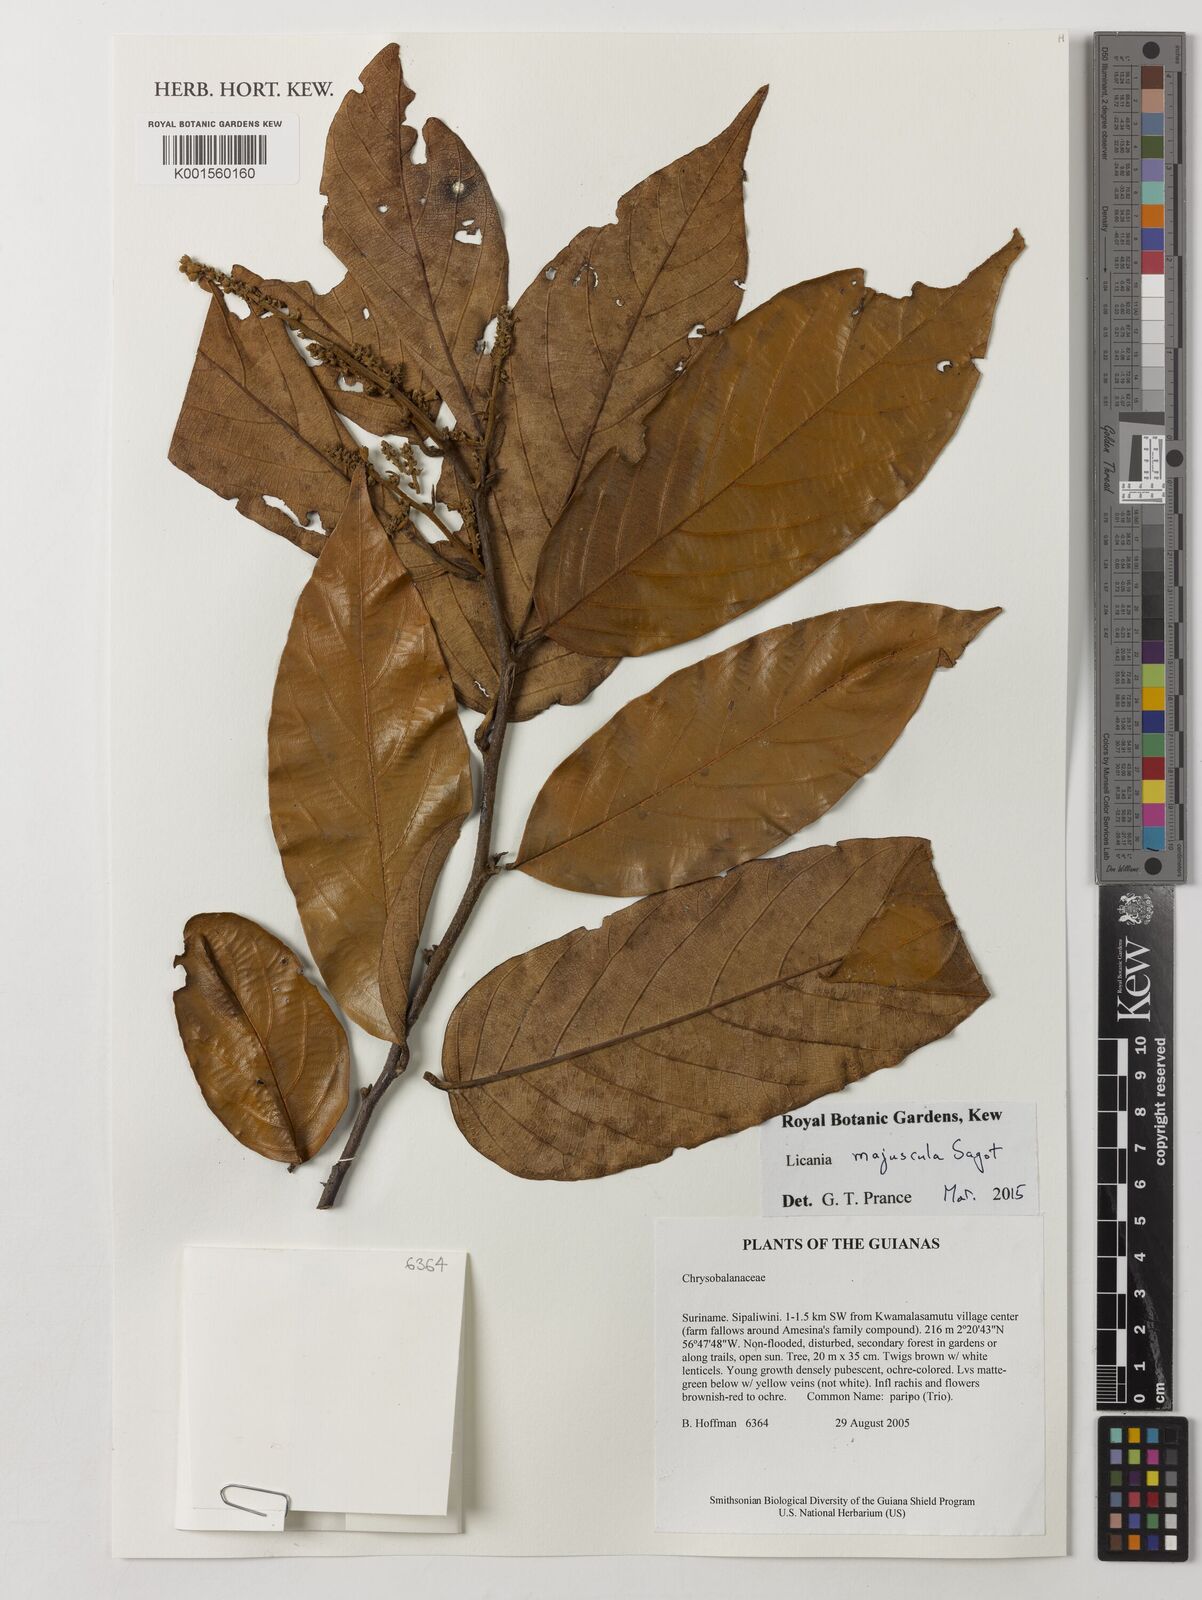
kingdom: Plantae
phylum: Tracheophyta
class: Magnoliopsida
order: Malpighiales
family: Chrysobalanaceae
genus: Licania
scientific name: Licania majuscula
